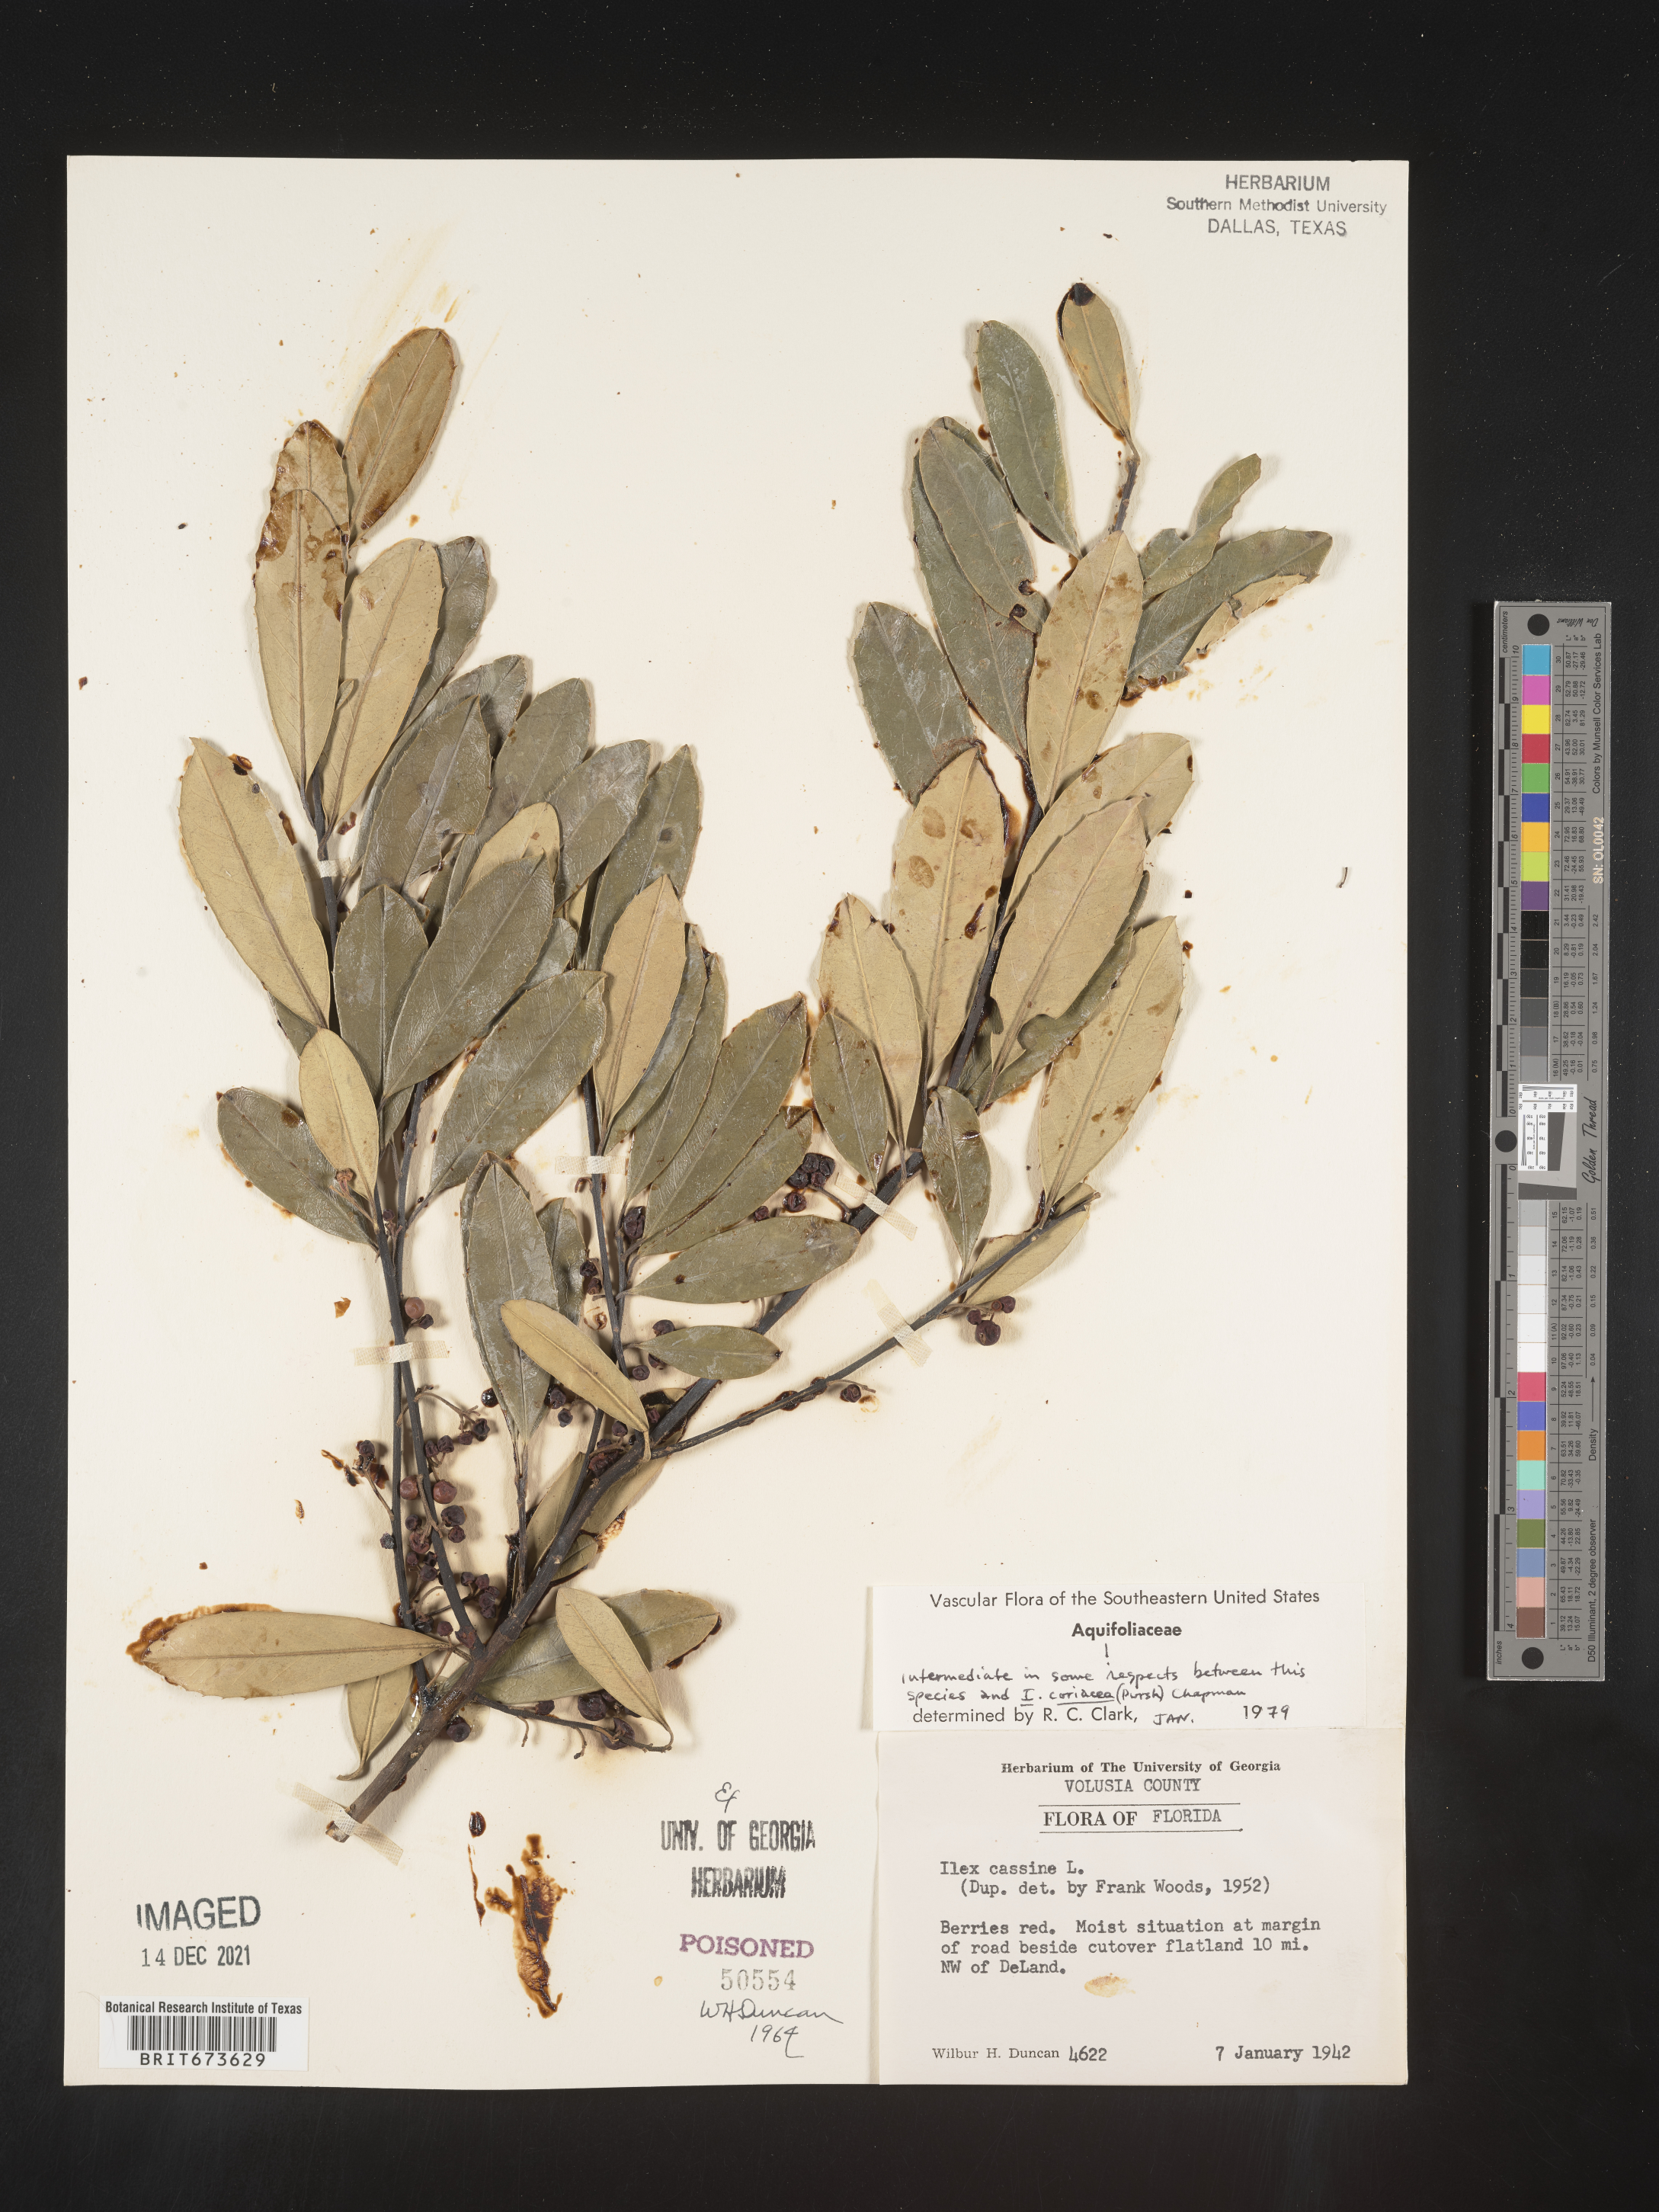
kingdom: Plantae
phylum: Tracheophyta
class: Magnoliopsida
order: Aquifoliales
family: Aquifoliaceae
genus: Ilex
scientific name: Ilex cassine
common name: Dahoon
